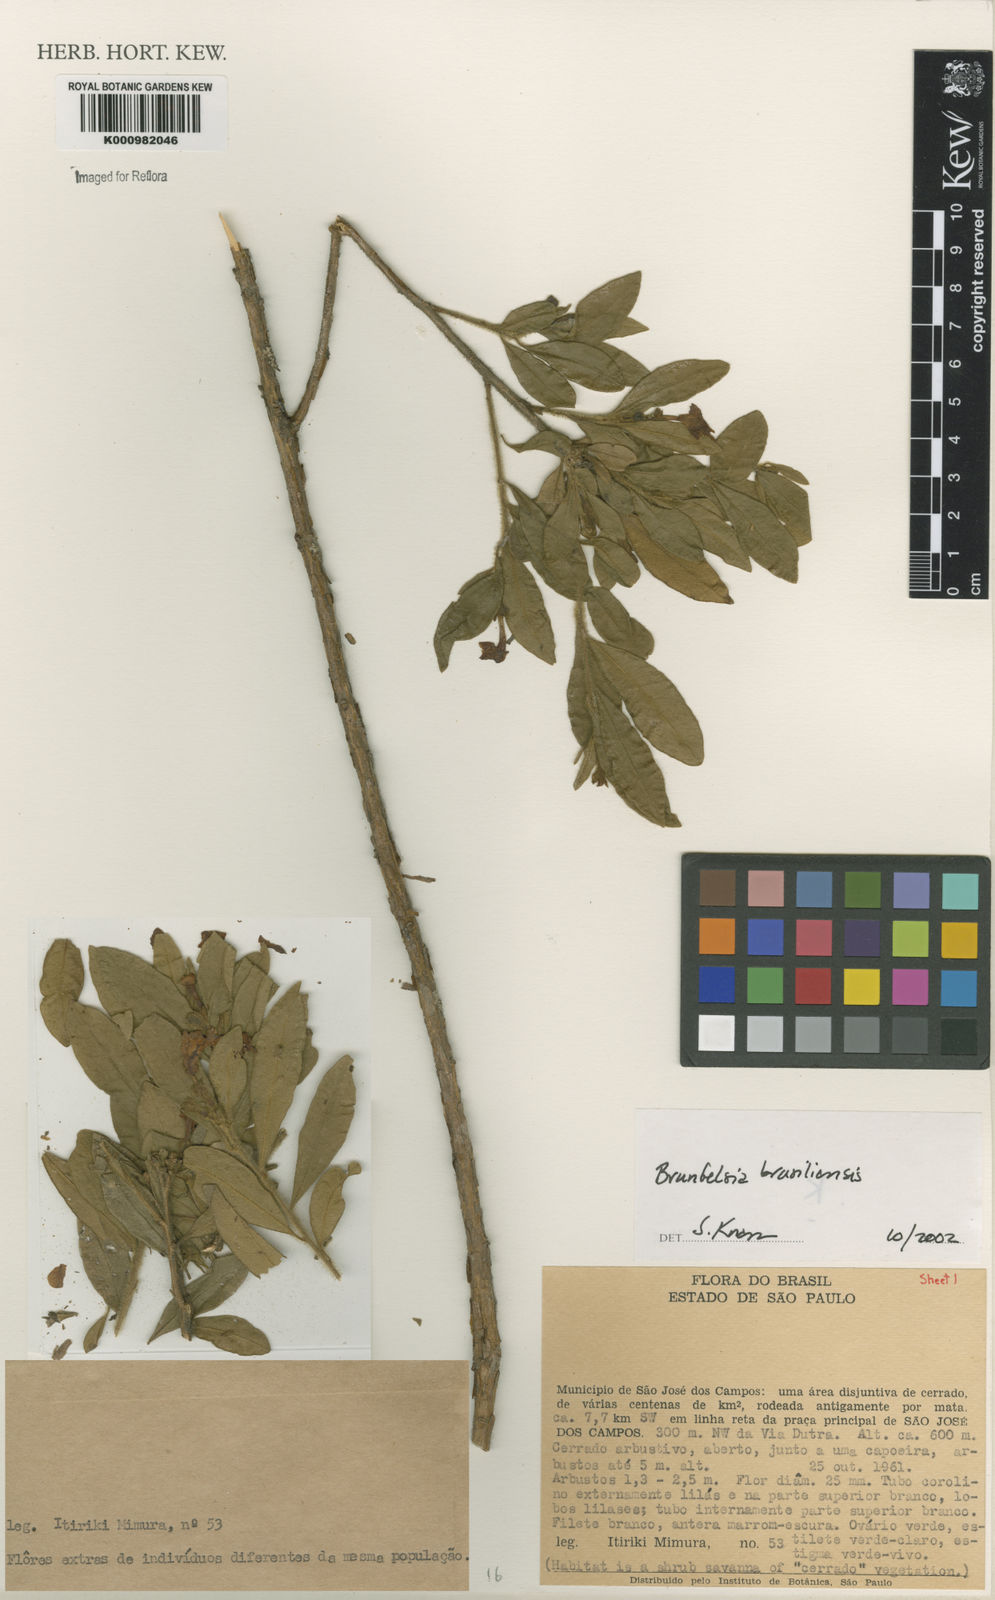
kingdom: Plantae
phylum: Tracheophyta
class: Magnoliopsida
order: Solanales
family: Solanaceae
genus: Brunfelsia
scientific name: Brunfelsia brasiliensis
